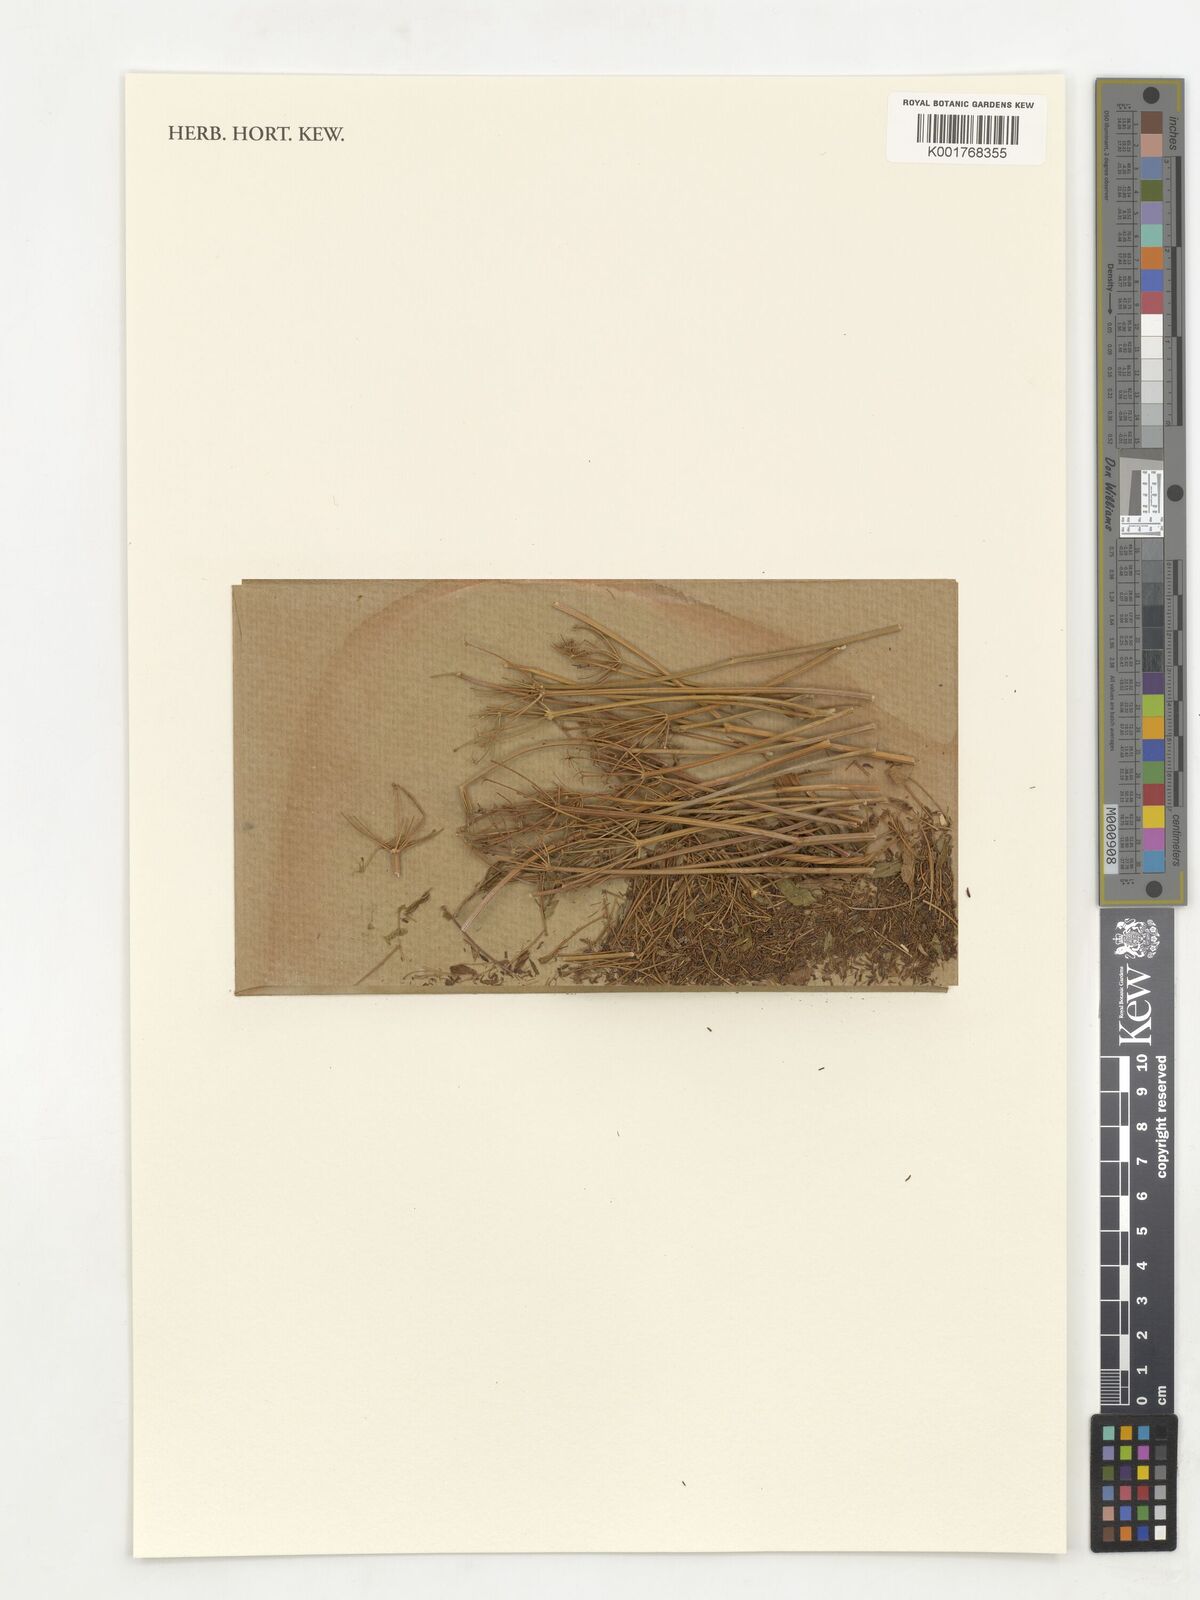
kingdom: Plantae
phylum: Tracheophyta
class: Magnoliopsida
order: Apiales
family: Apiaceae
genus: Aegopodium
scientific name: Aegopodium podagraria
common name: Ground-elder
